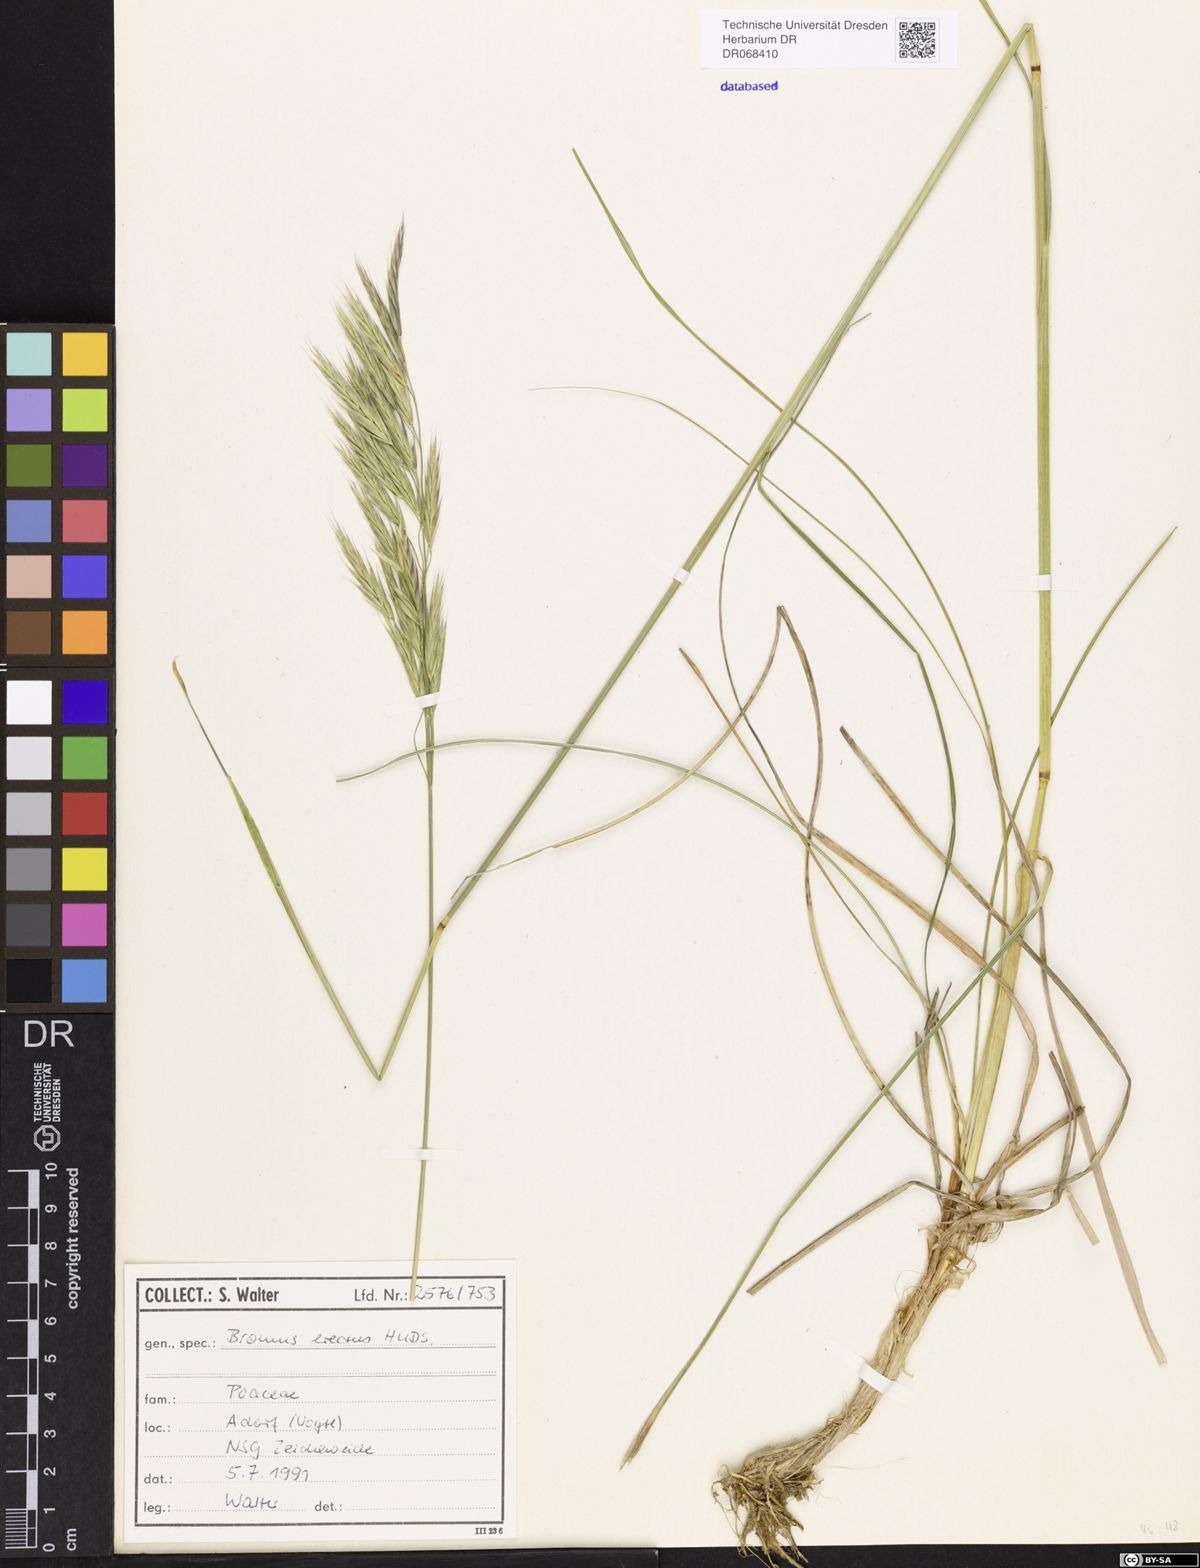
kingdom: Plantae
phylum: Tracheophyta
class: Liliopsida
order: Poales
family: Poaceae
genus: Bromus
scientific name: Bromus erectus
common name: Erect brome
